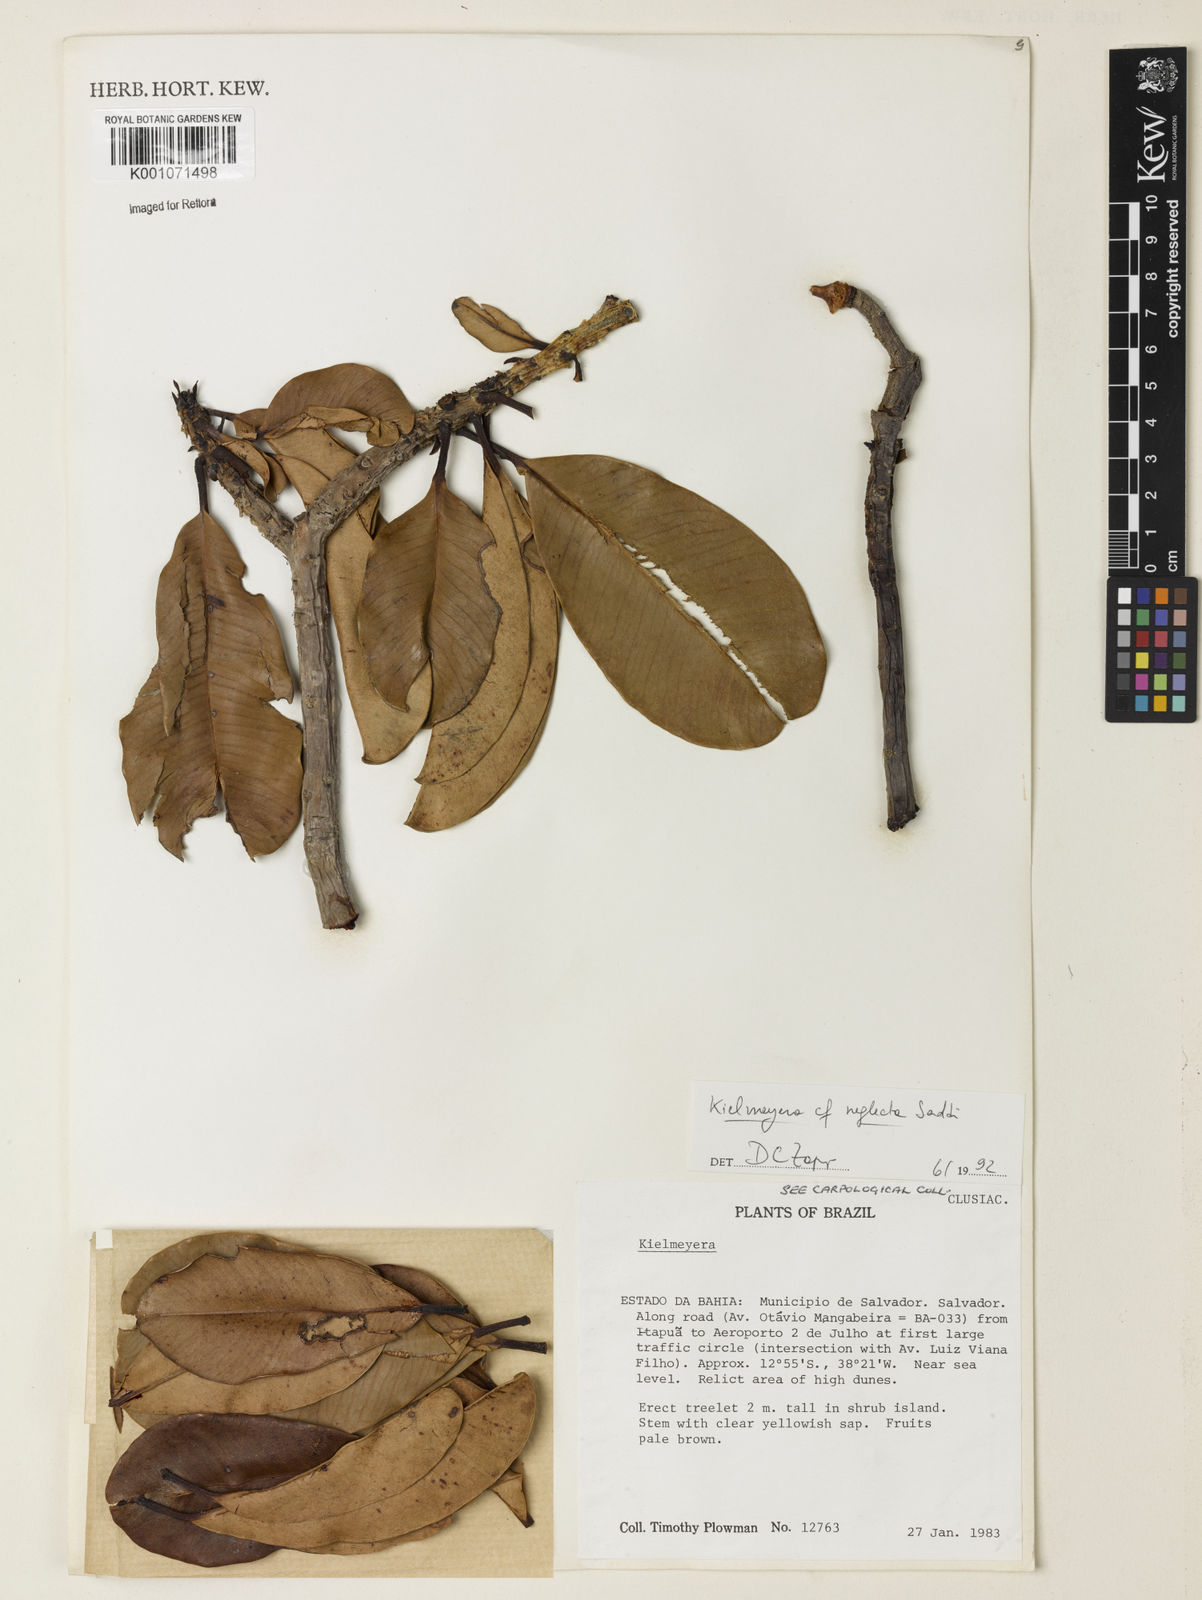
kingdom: Plantae
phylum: Tracheophyta
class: Magnoliopsida
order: Malpighiales
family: Calophyllaceae
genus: Kielmeyera
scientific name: Kielmeyera reticulata
